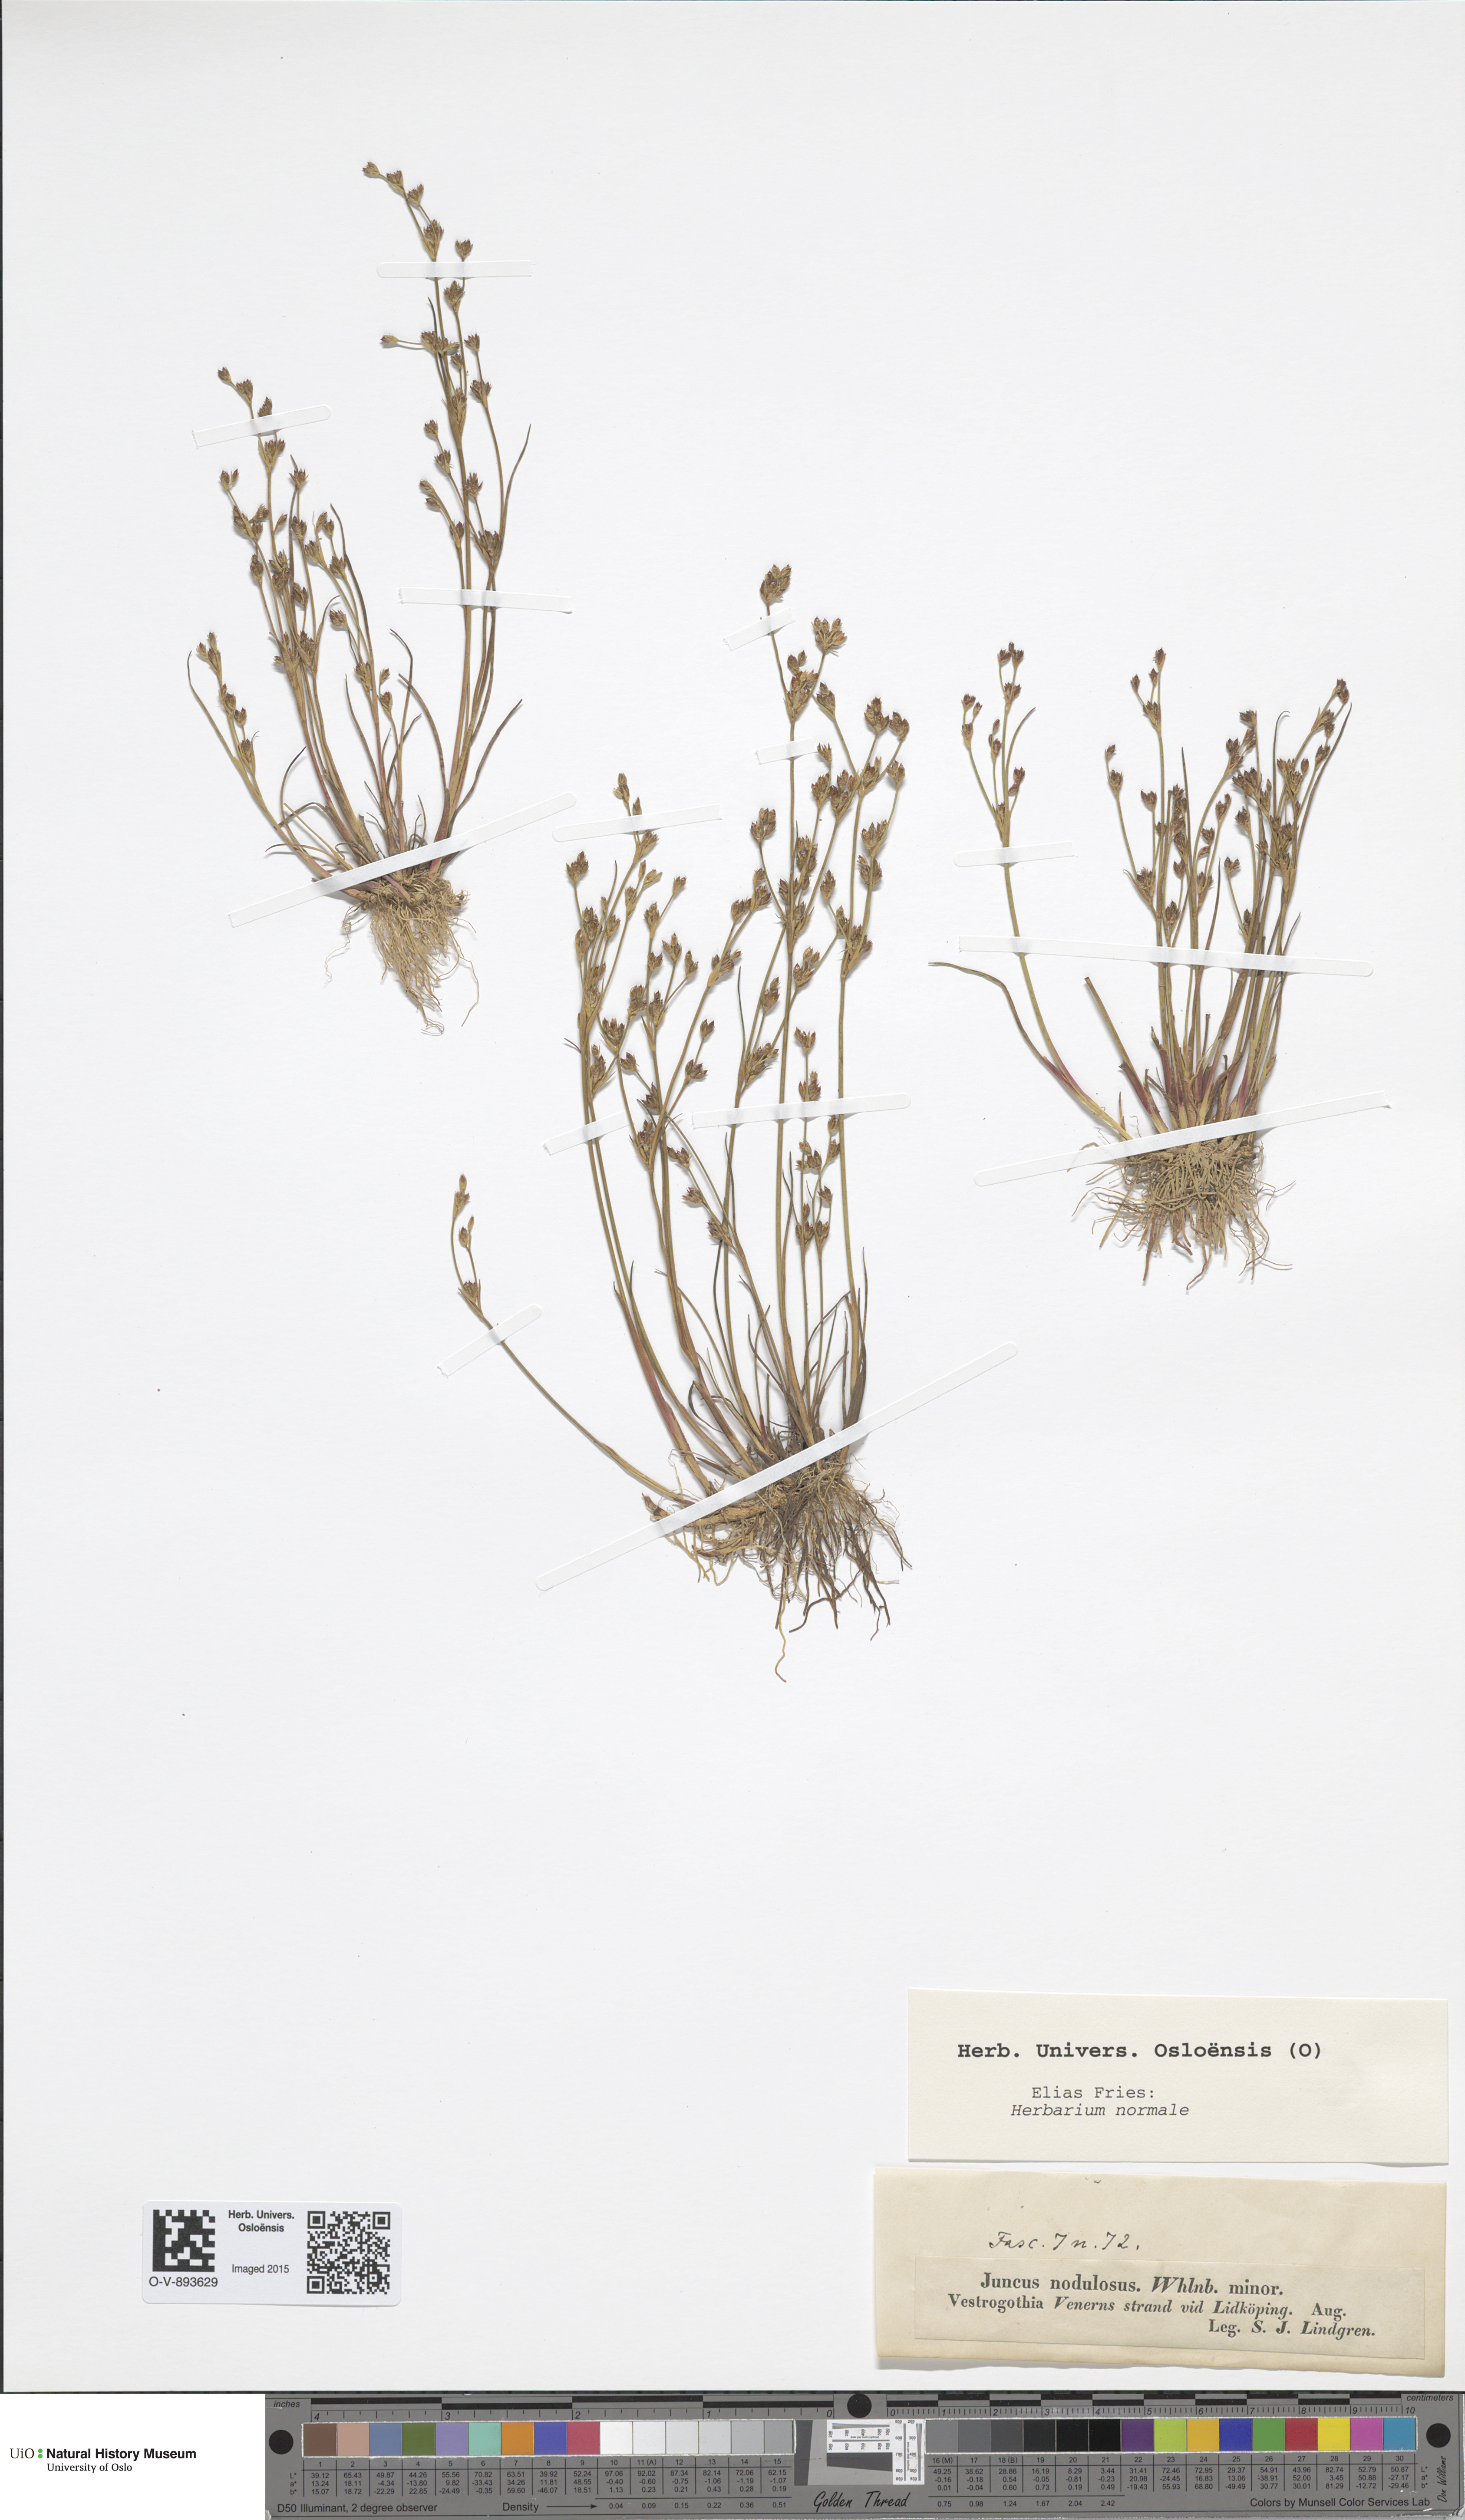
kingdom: Plantae
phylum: Tracheophyta
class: Liliopsida
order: Poales
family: Juncaceae
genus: Juncus
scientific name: Juncus alpinoarticulatus
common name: Alpine rush
